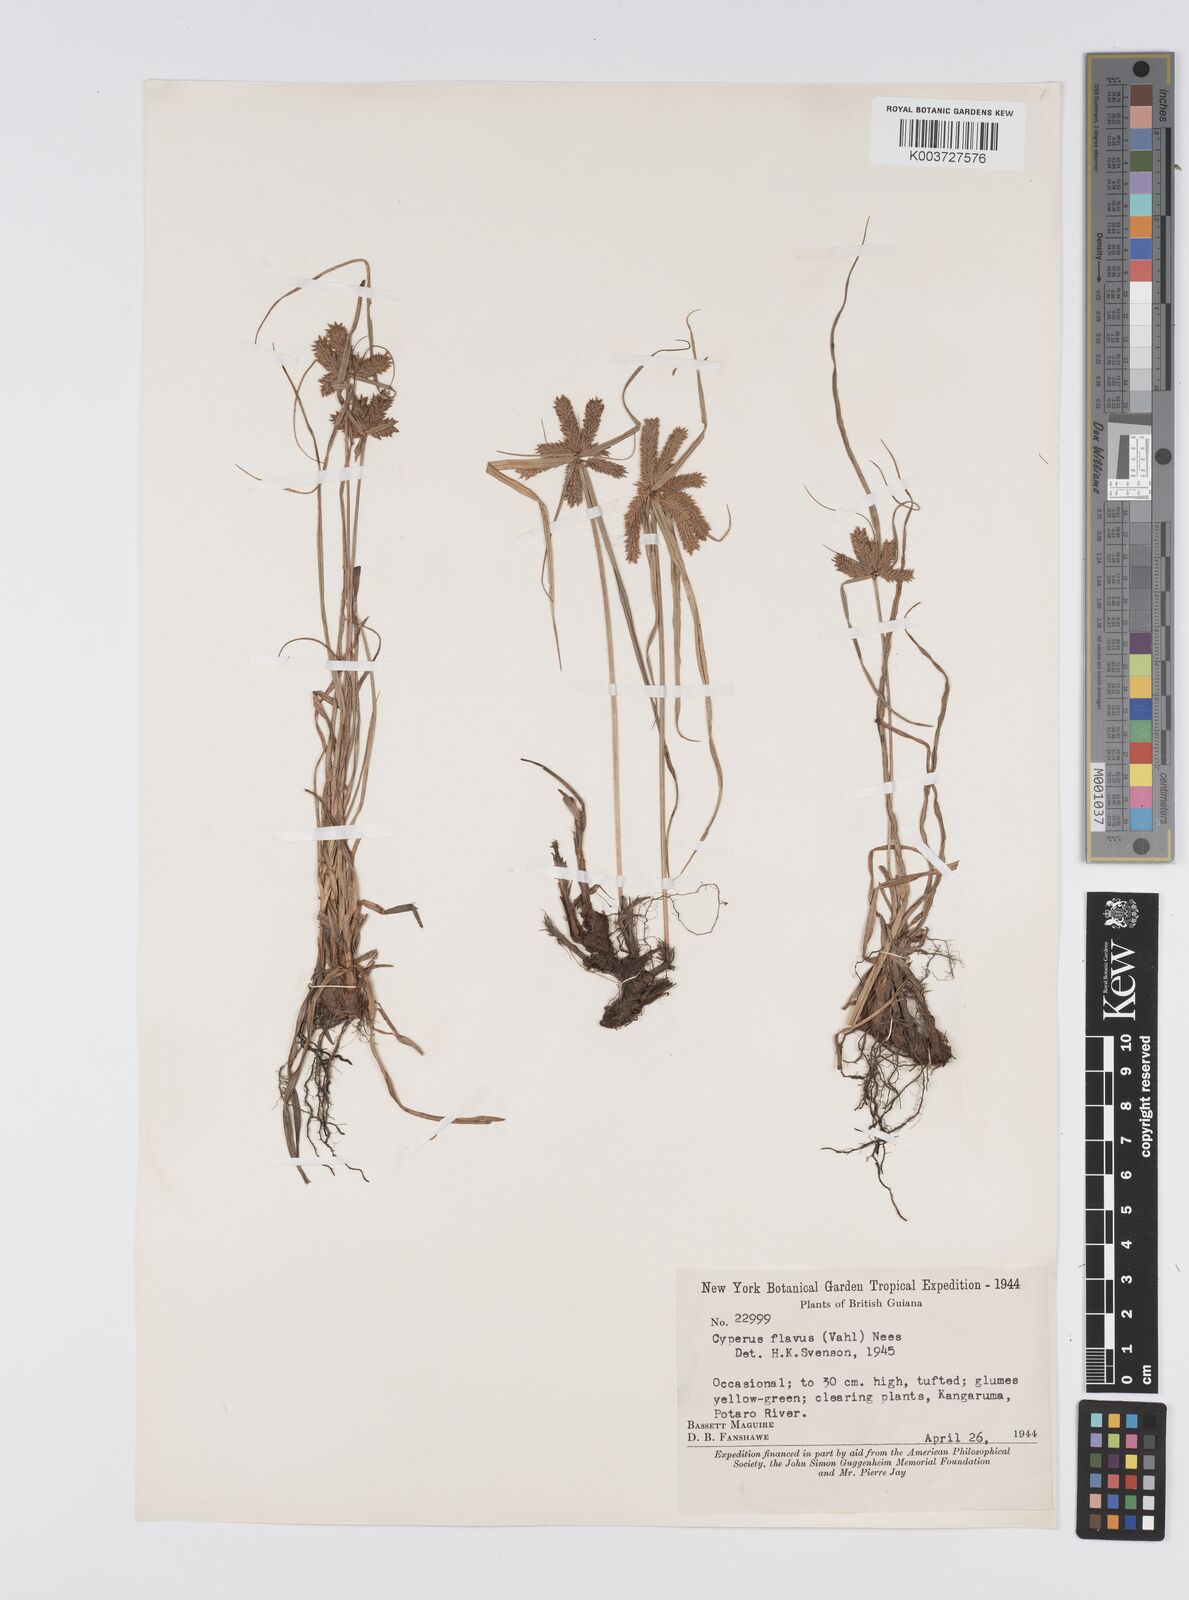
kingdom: Plantae
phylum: Tracheophyta
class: Liliopsida
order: Poales
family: Cyperaceae
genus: Cyperus
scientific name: Cyperus aggregatus
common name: Inflatedscale flatsedge
